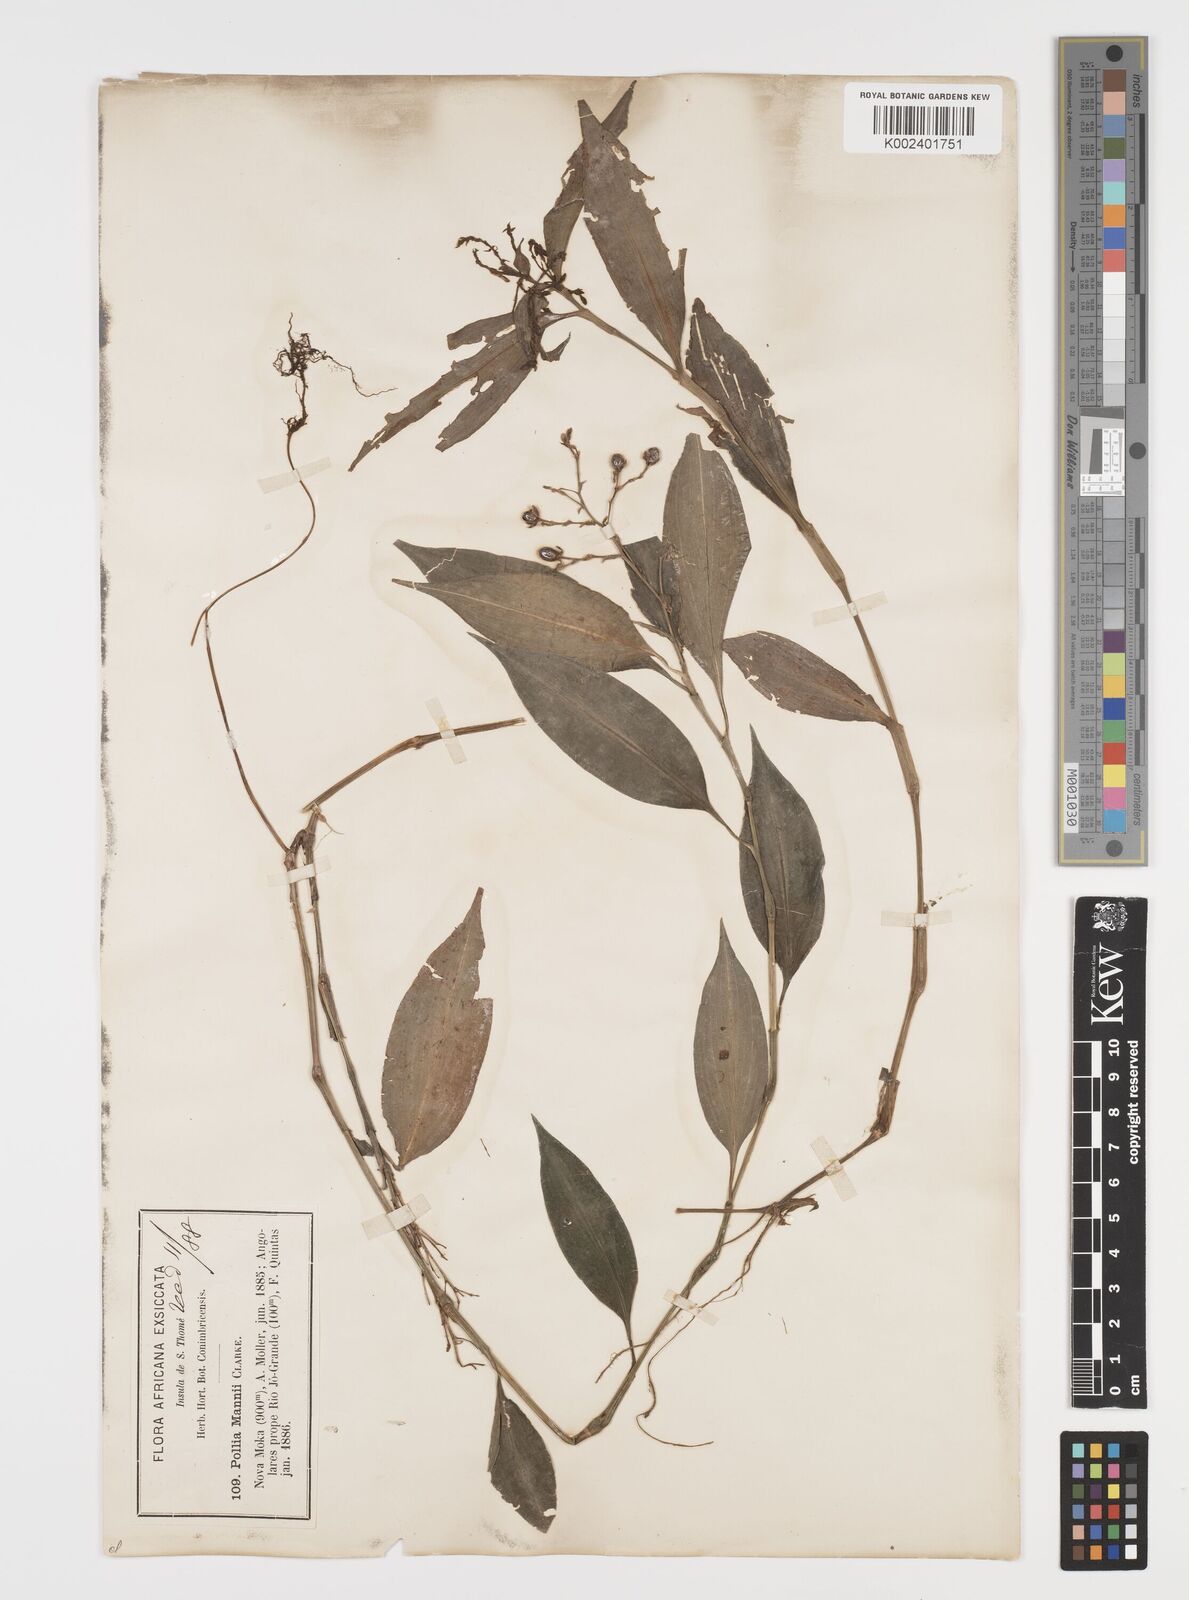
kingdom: Plantae
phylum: Tracheophyta
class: Liliopsida
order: Commelinales
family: Commelinaceae
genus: Pollia
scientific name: Pollia mannii
